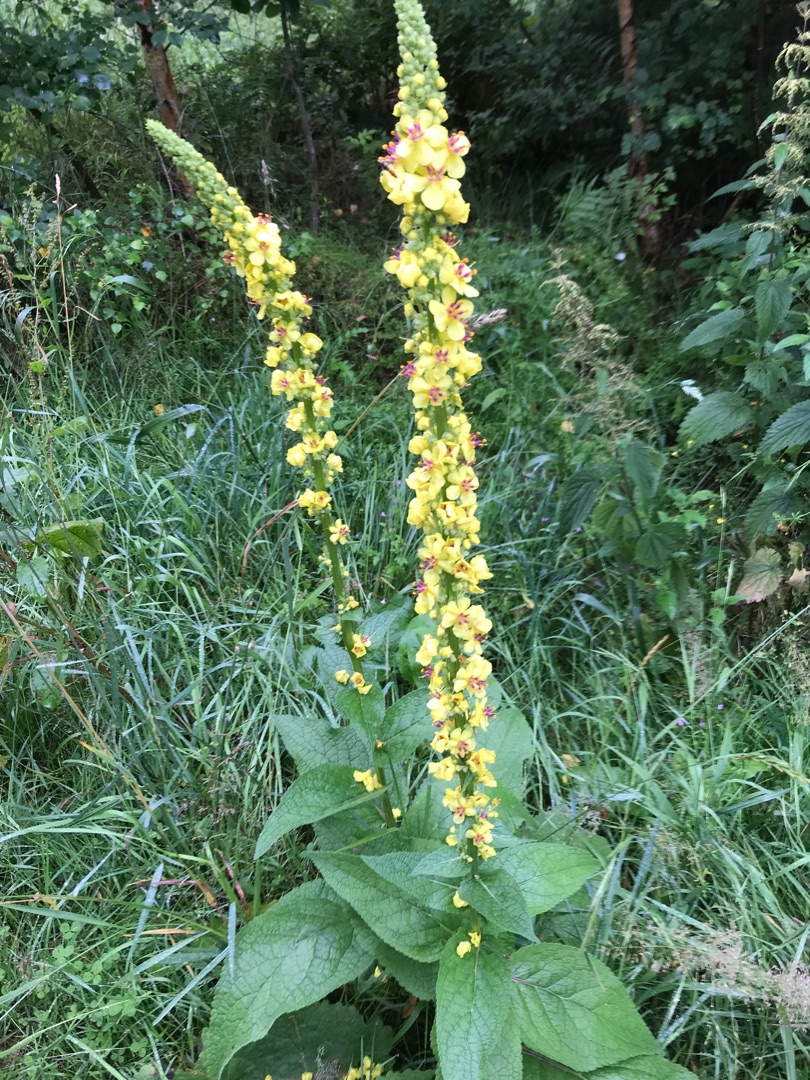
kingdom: Plantae
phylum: Tracheophyta
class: Magnoliopsida
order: Lamiales
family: Scrophulariaceae
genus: Verbascum
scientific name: Verbascum nigrum
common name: Mørk kongelys
